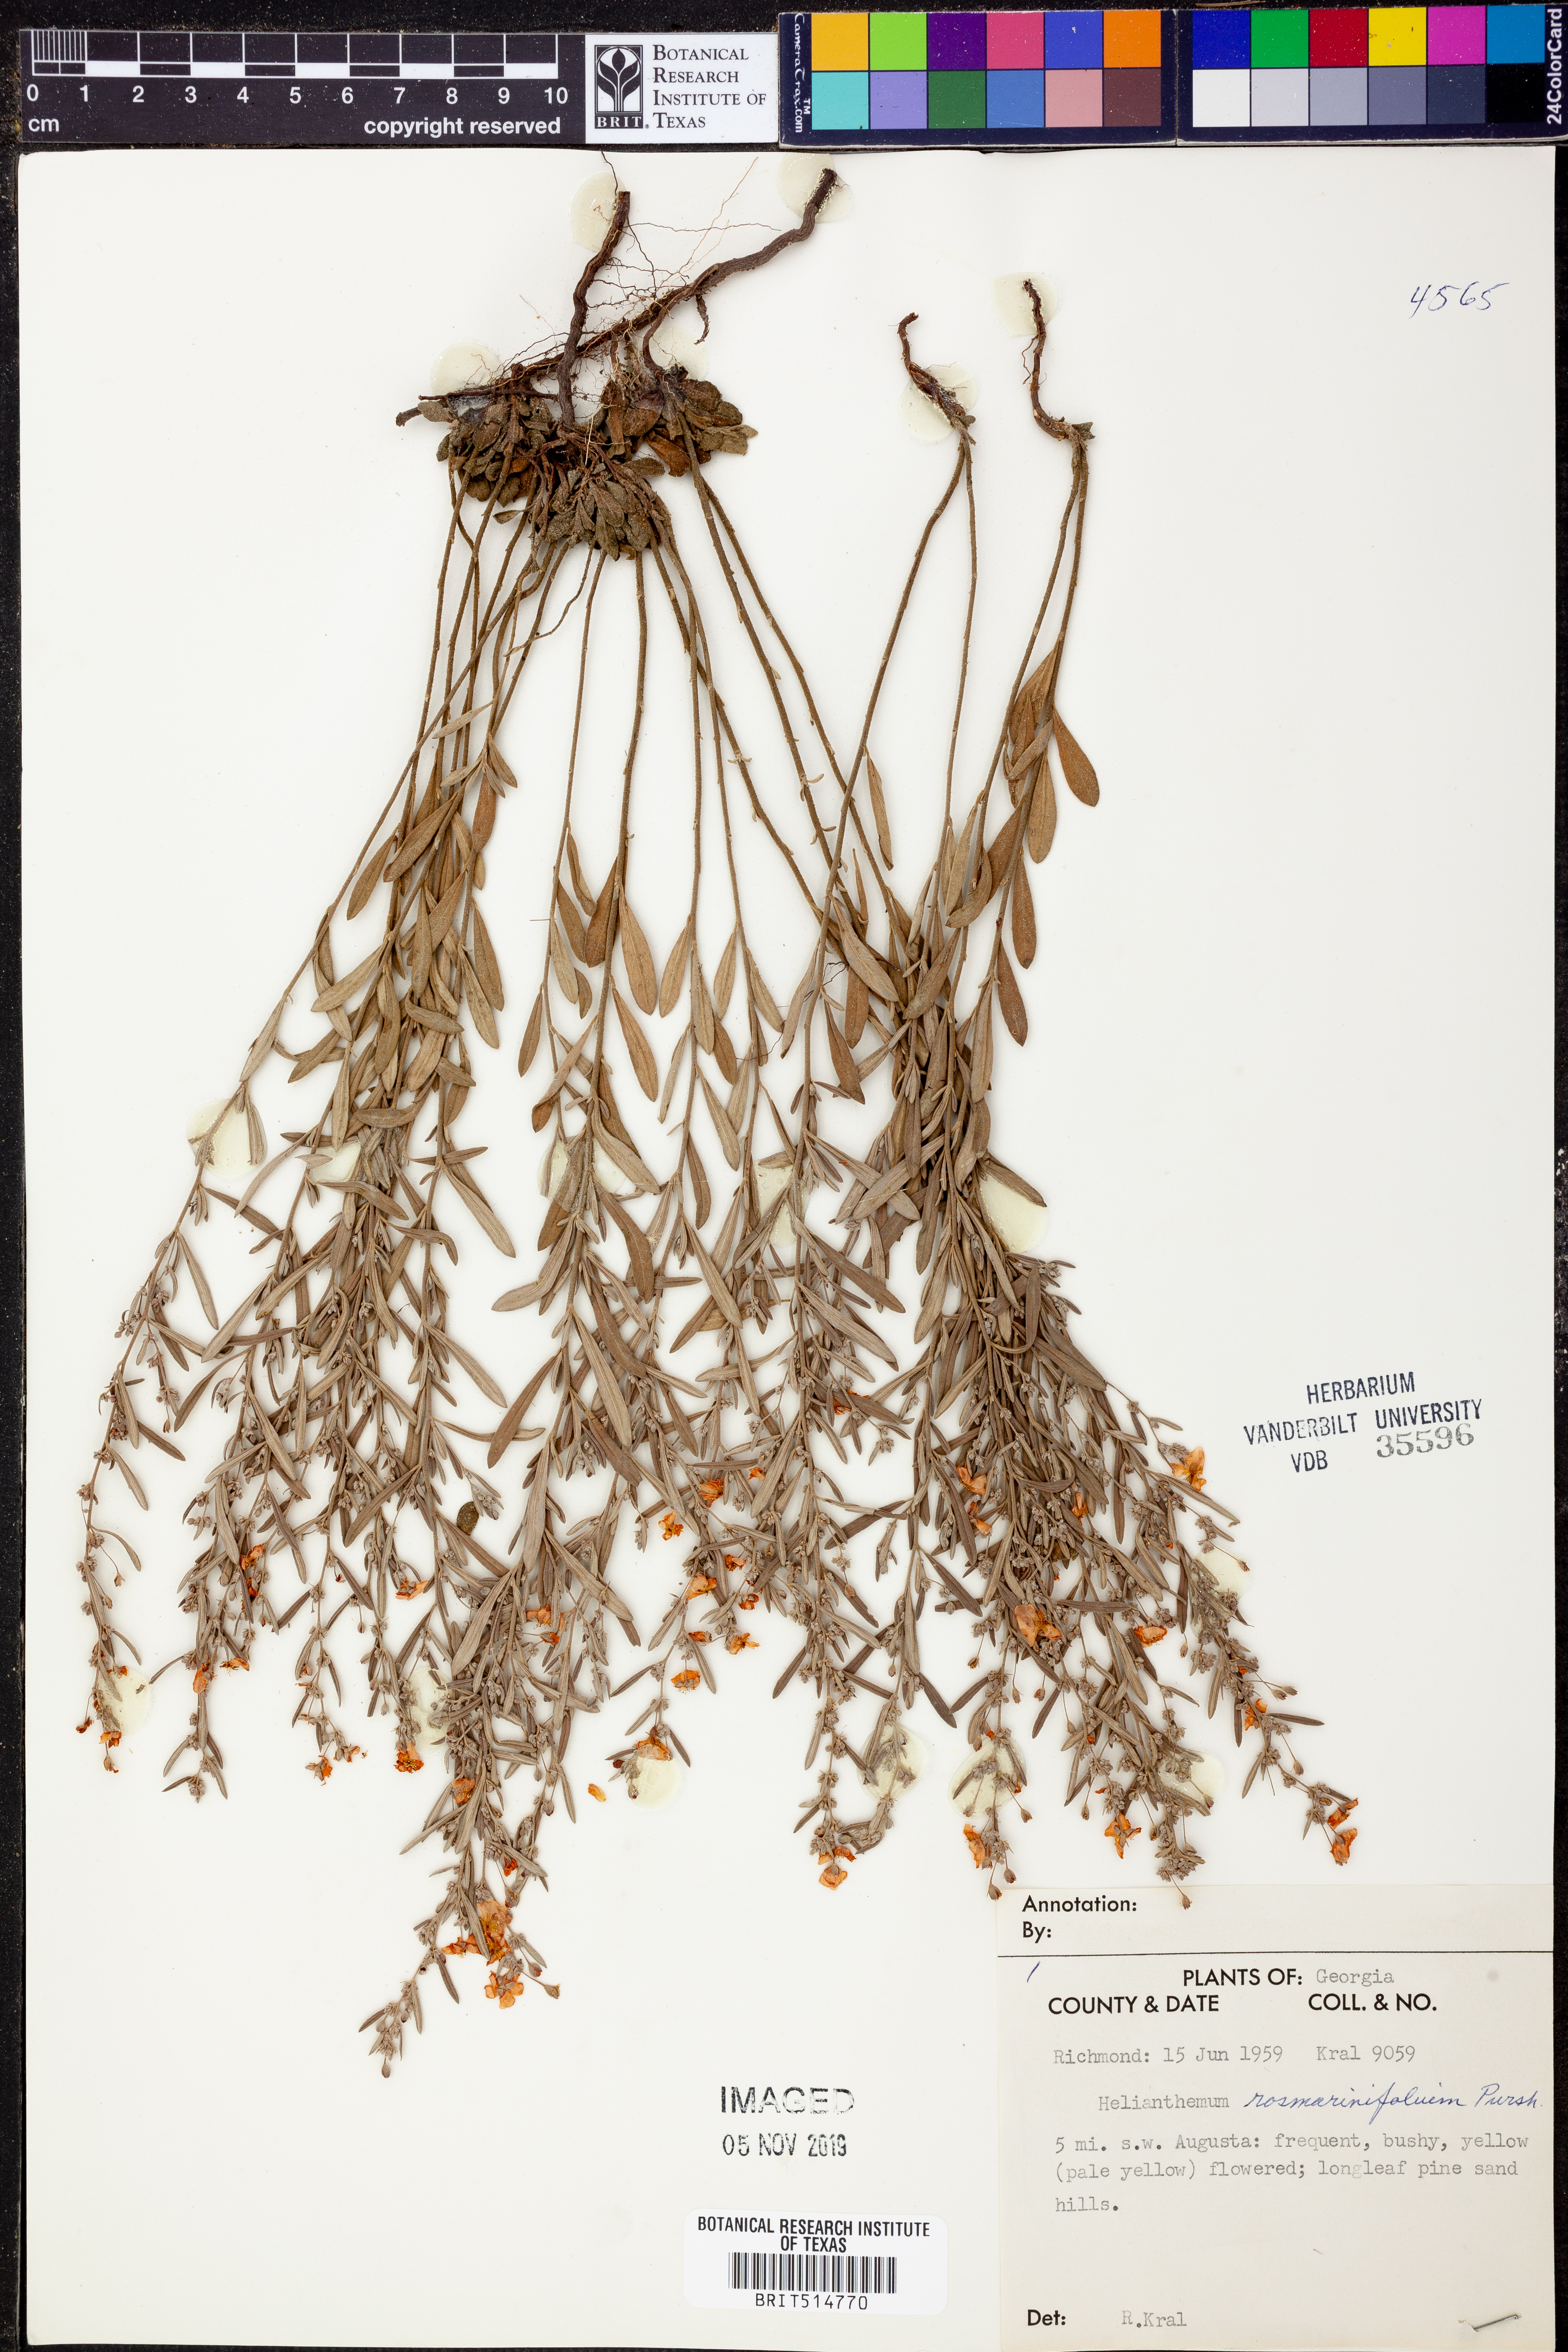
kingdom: Plantae
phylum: Tracheophyta
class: Magnoliopsida
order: Malvales
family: Cistaceae
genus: Crocanthemum
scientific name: Crocanthemum rosmarinifolium
